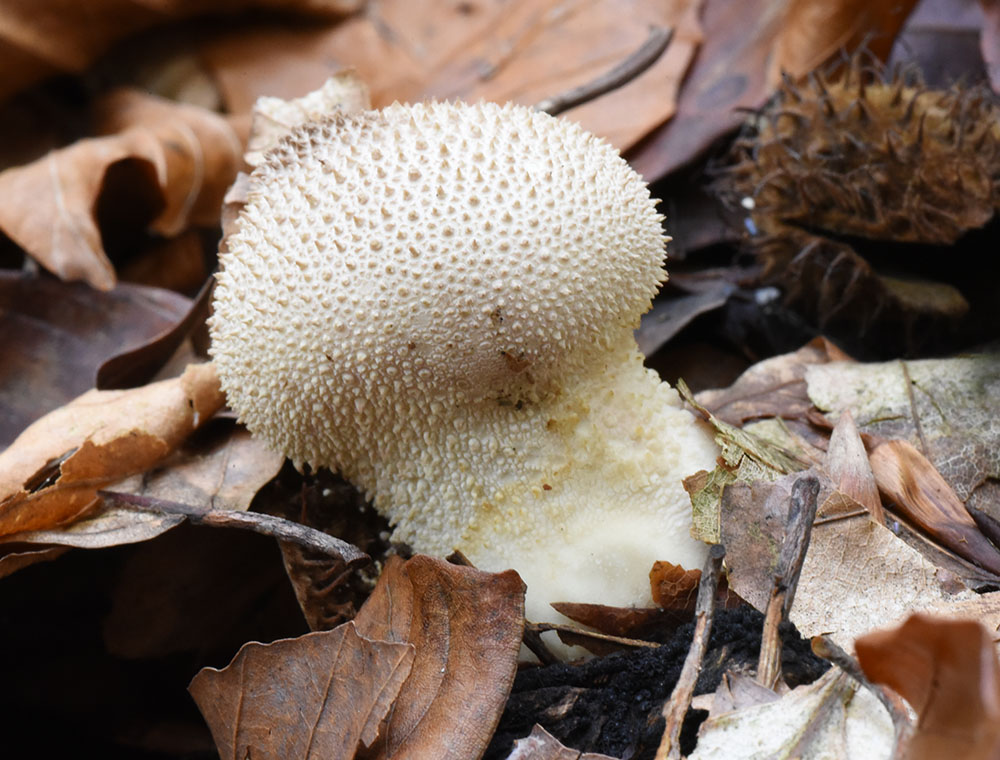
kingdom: Fungi
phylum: Basidiomycota
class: Agaricomycetes
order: Agaricales
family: Lycoperdaceae
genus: Lycoperdon
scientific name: Lycoperdon perlatum
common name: Common puffball
